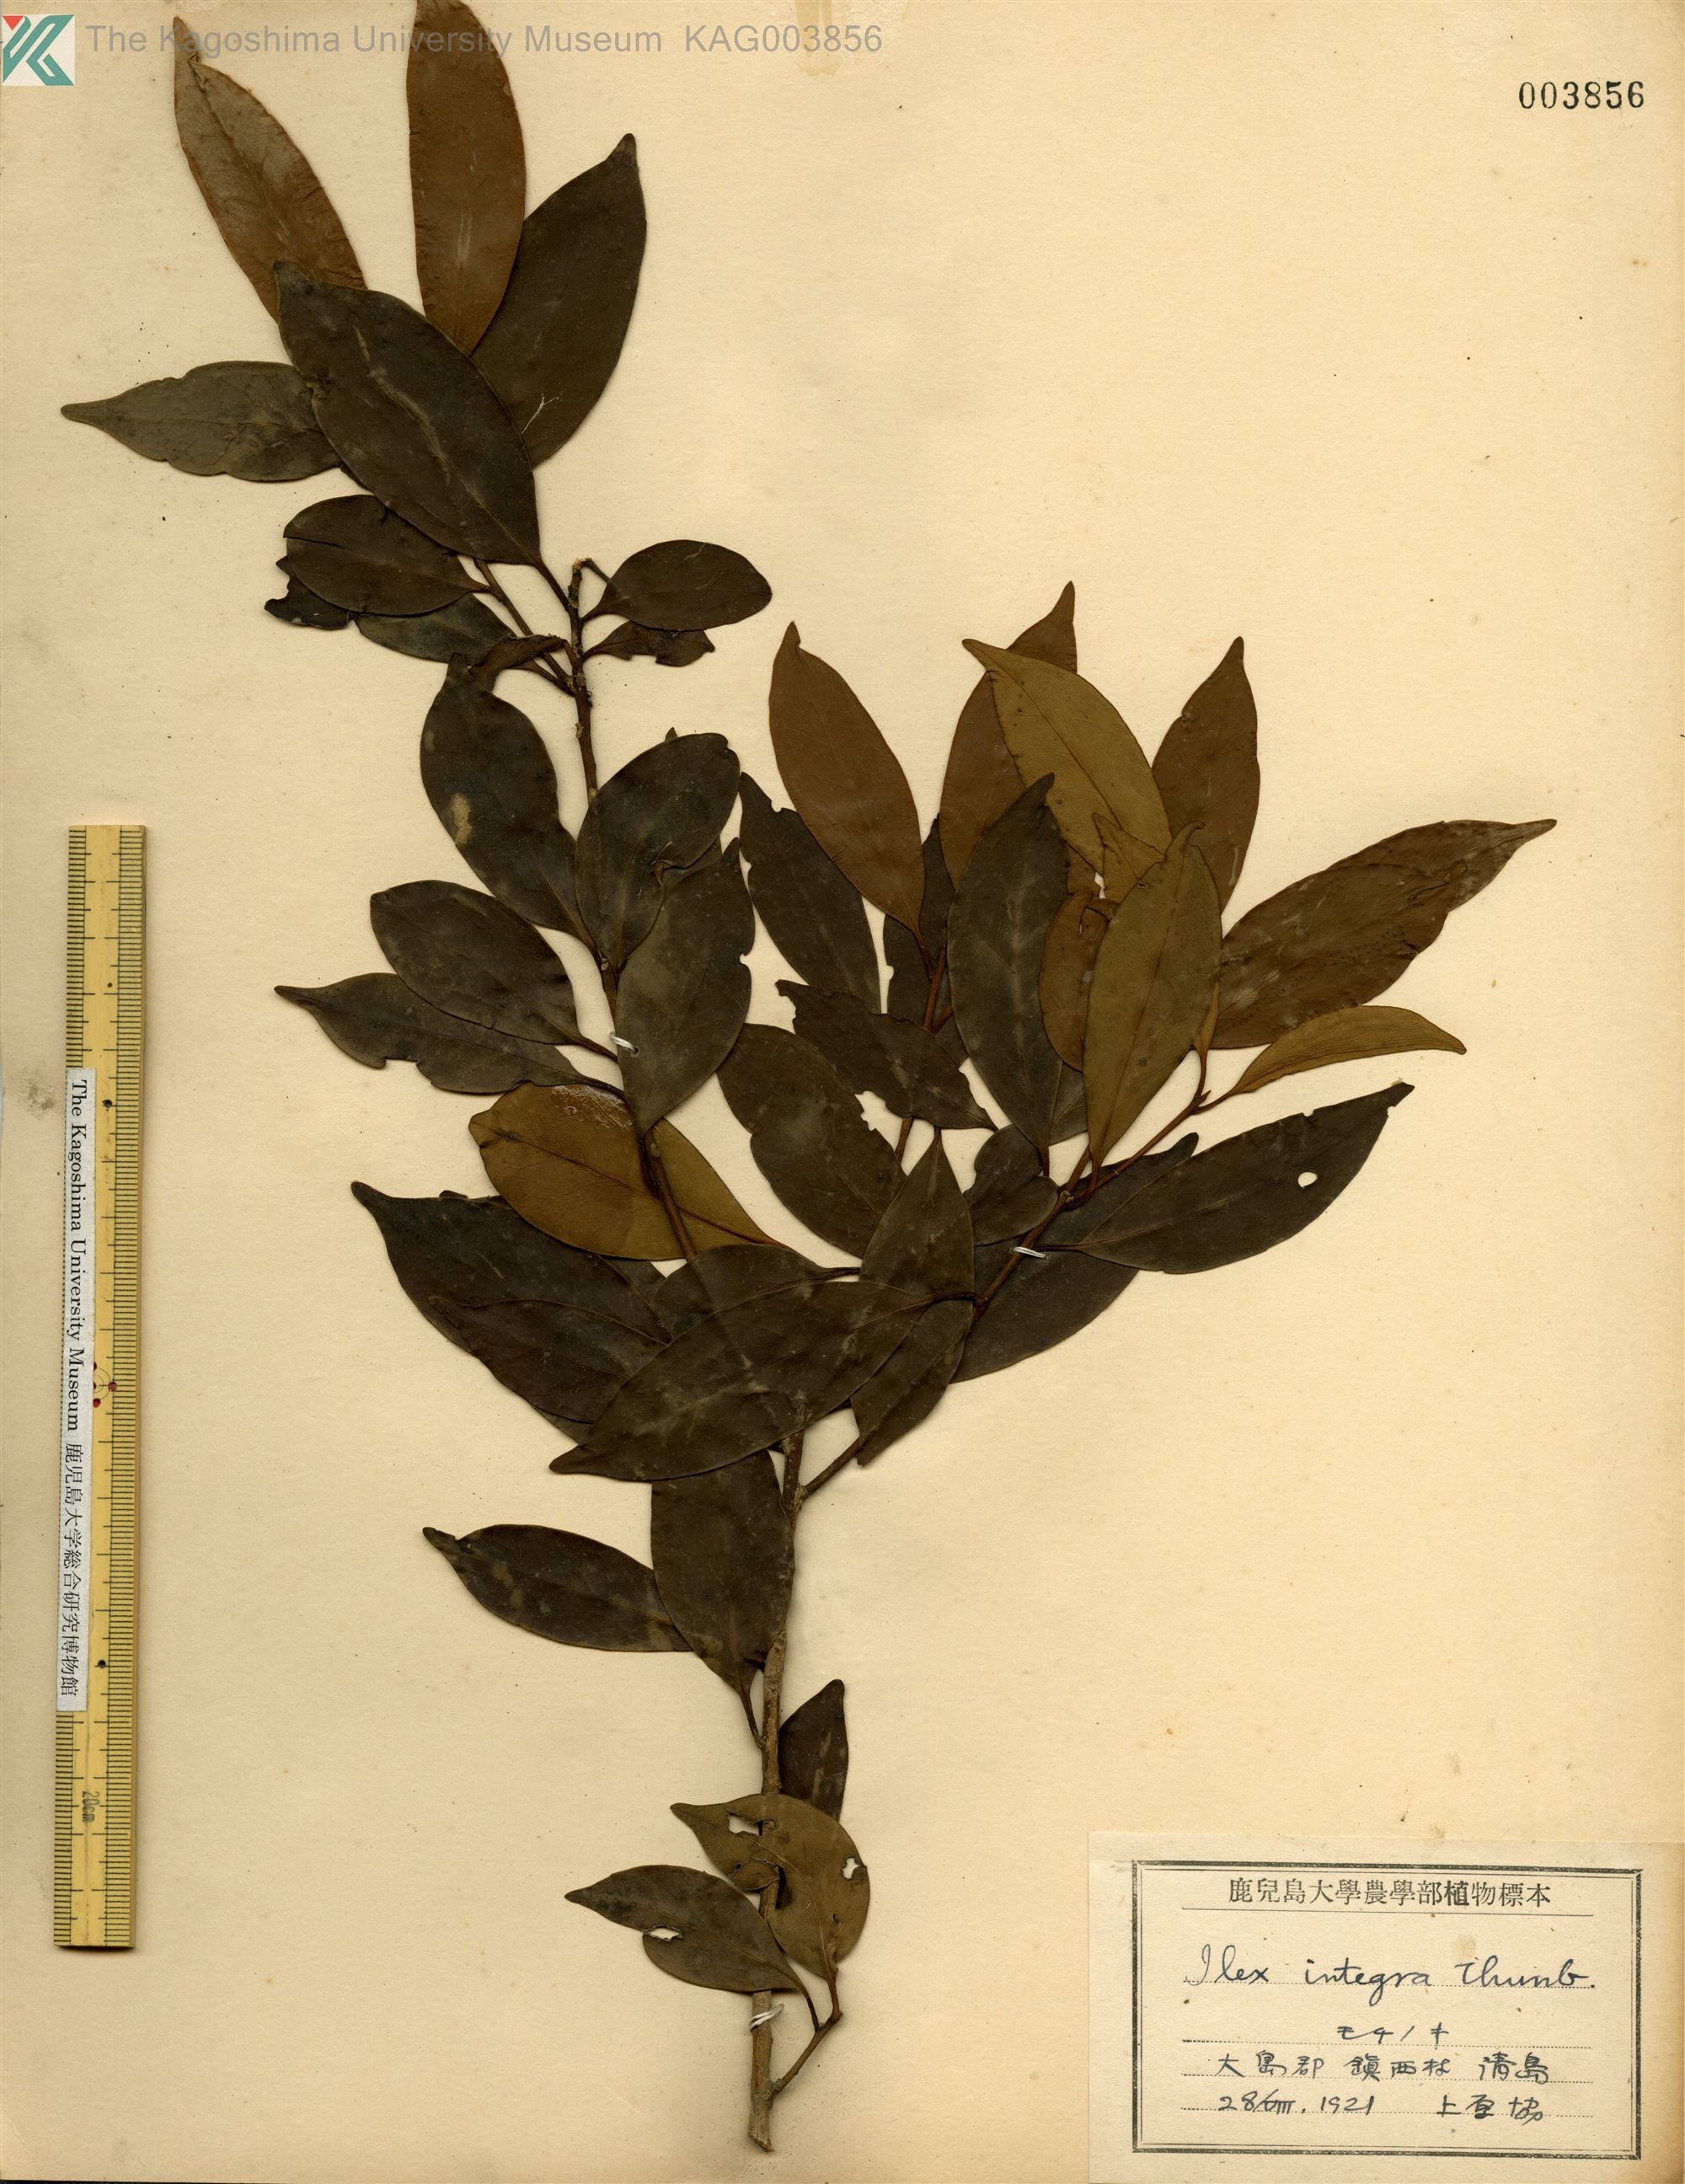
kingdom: Plantae
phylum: Tracheophyta
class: Magnoliopsida
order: Aquifoliales
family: Aquifoliaceae
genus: Ilex
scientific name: Ilex integra
